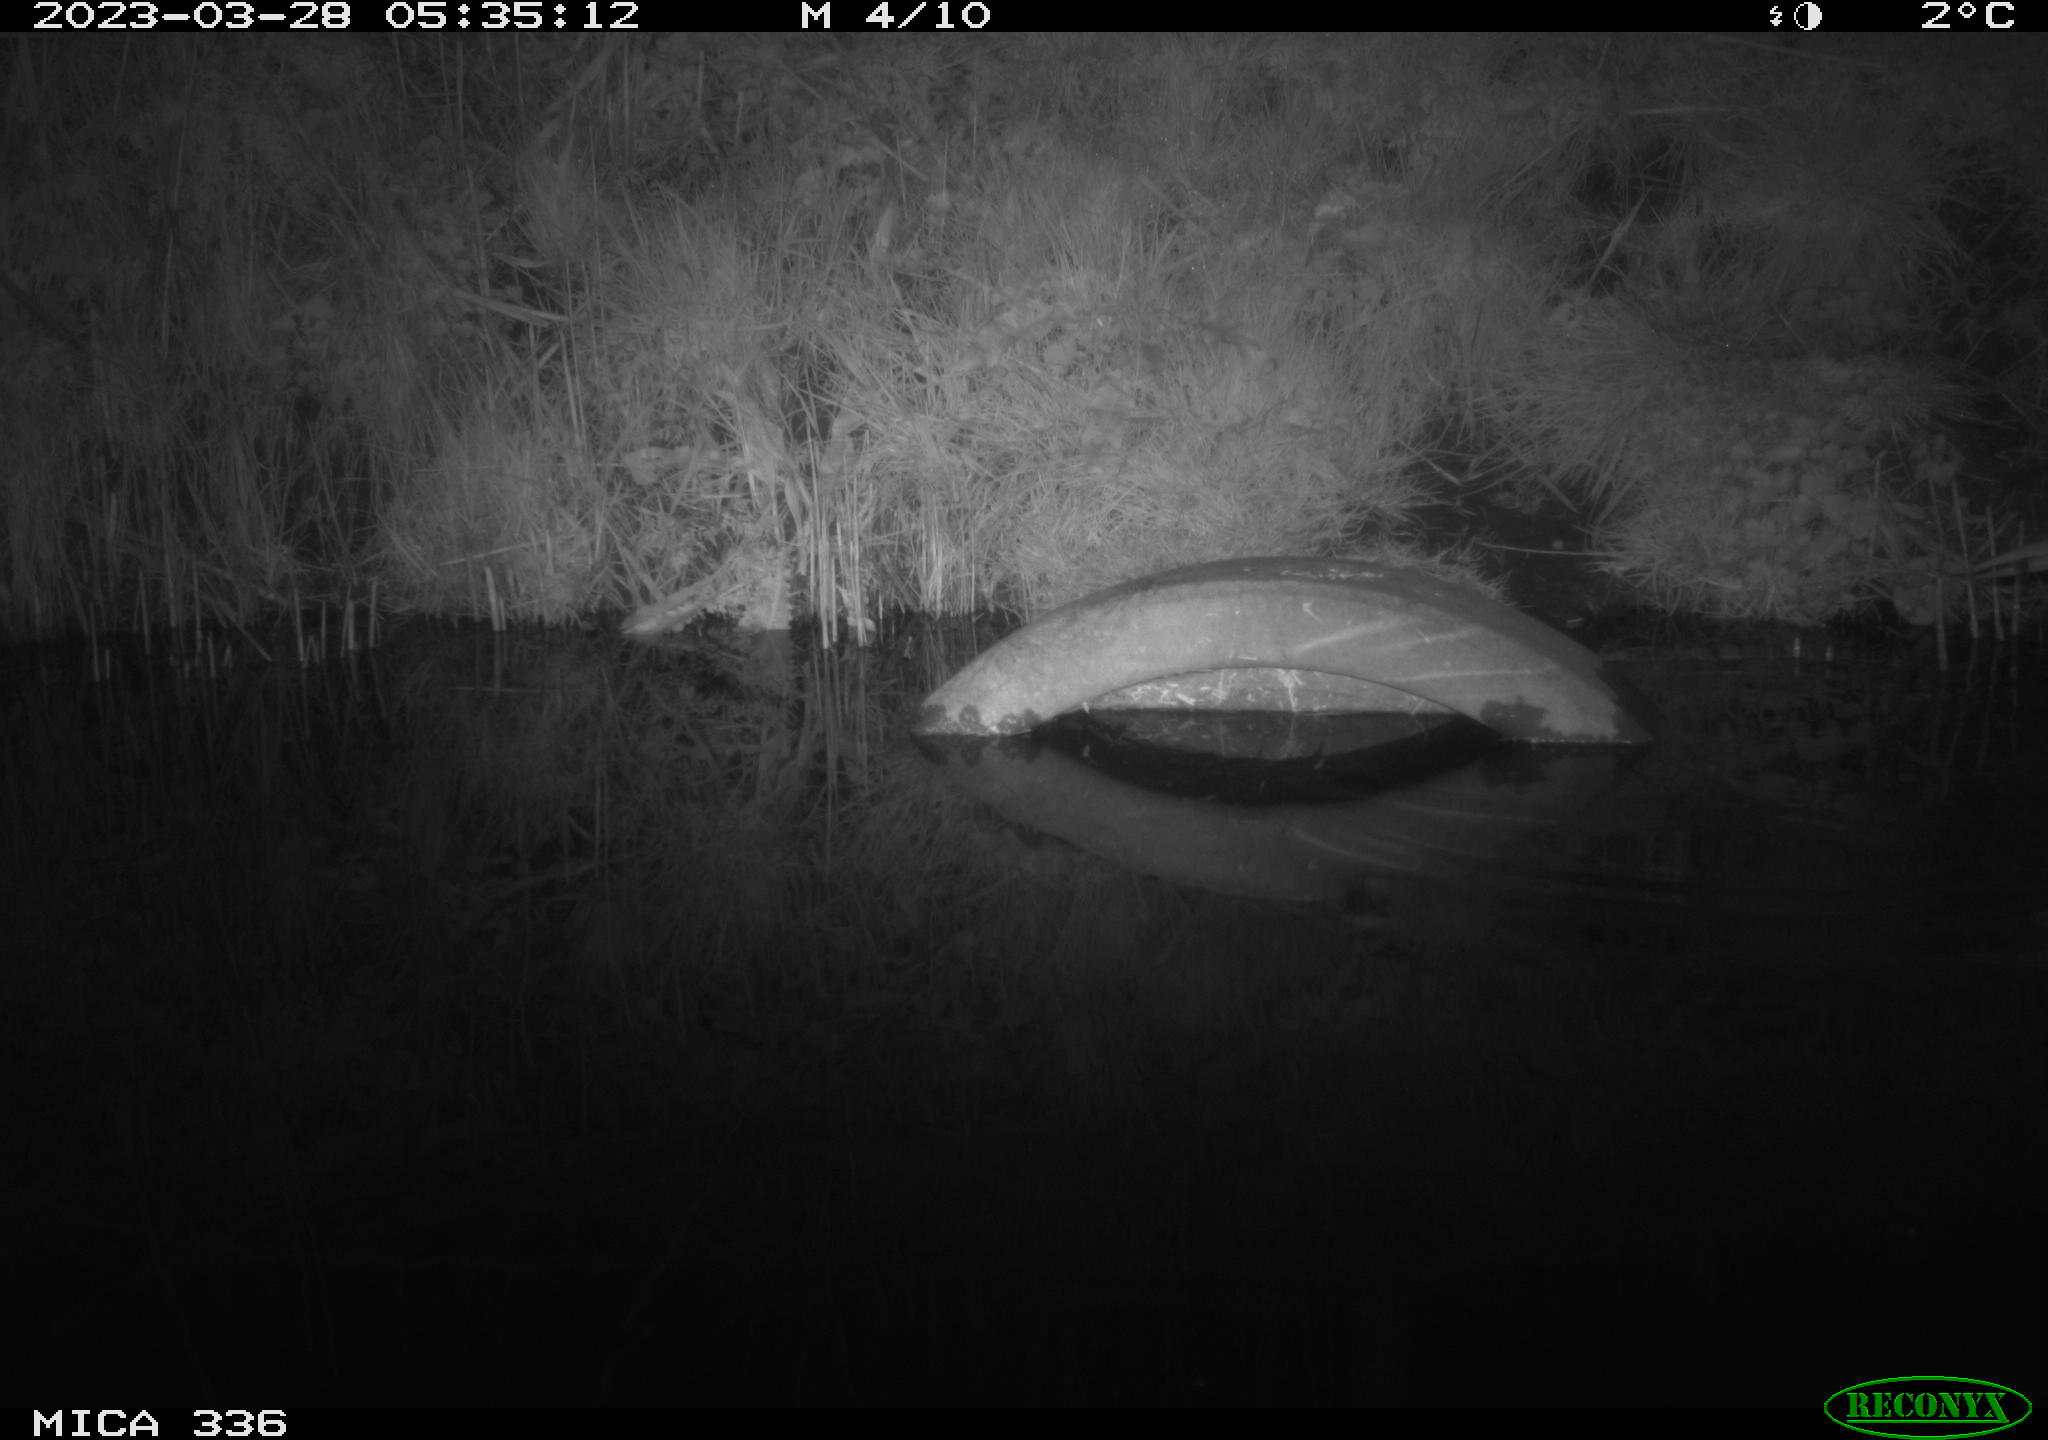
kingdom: Animalia
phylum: Chordata
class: Aves
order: Pelecaniformes
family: Ardeidae
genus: Ardea
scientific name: Ardea
